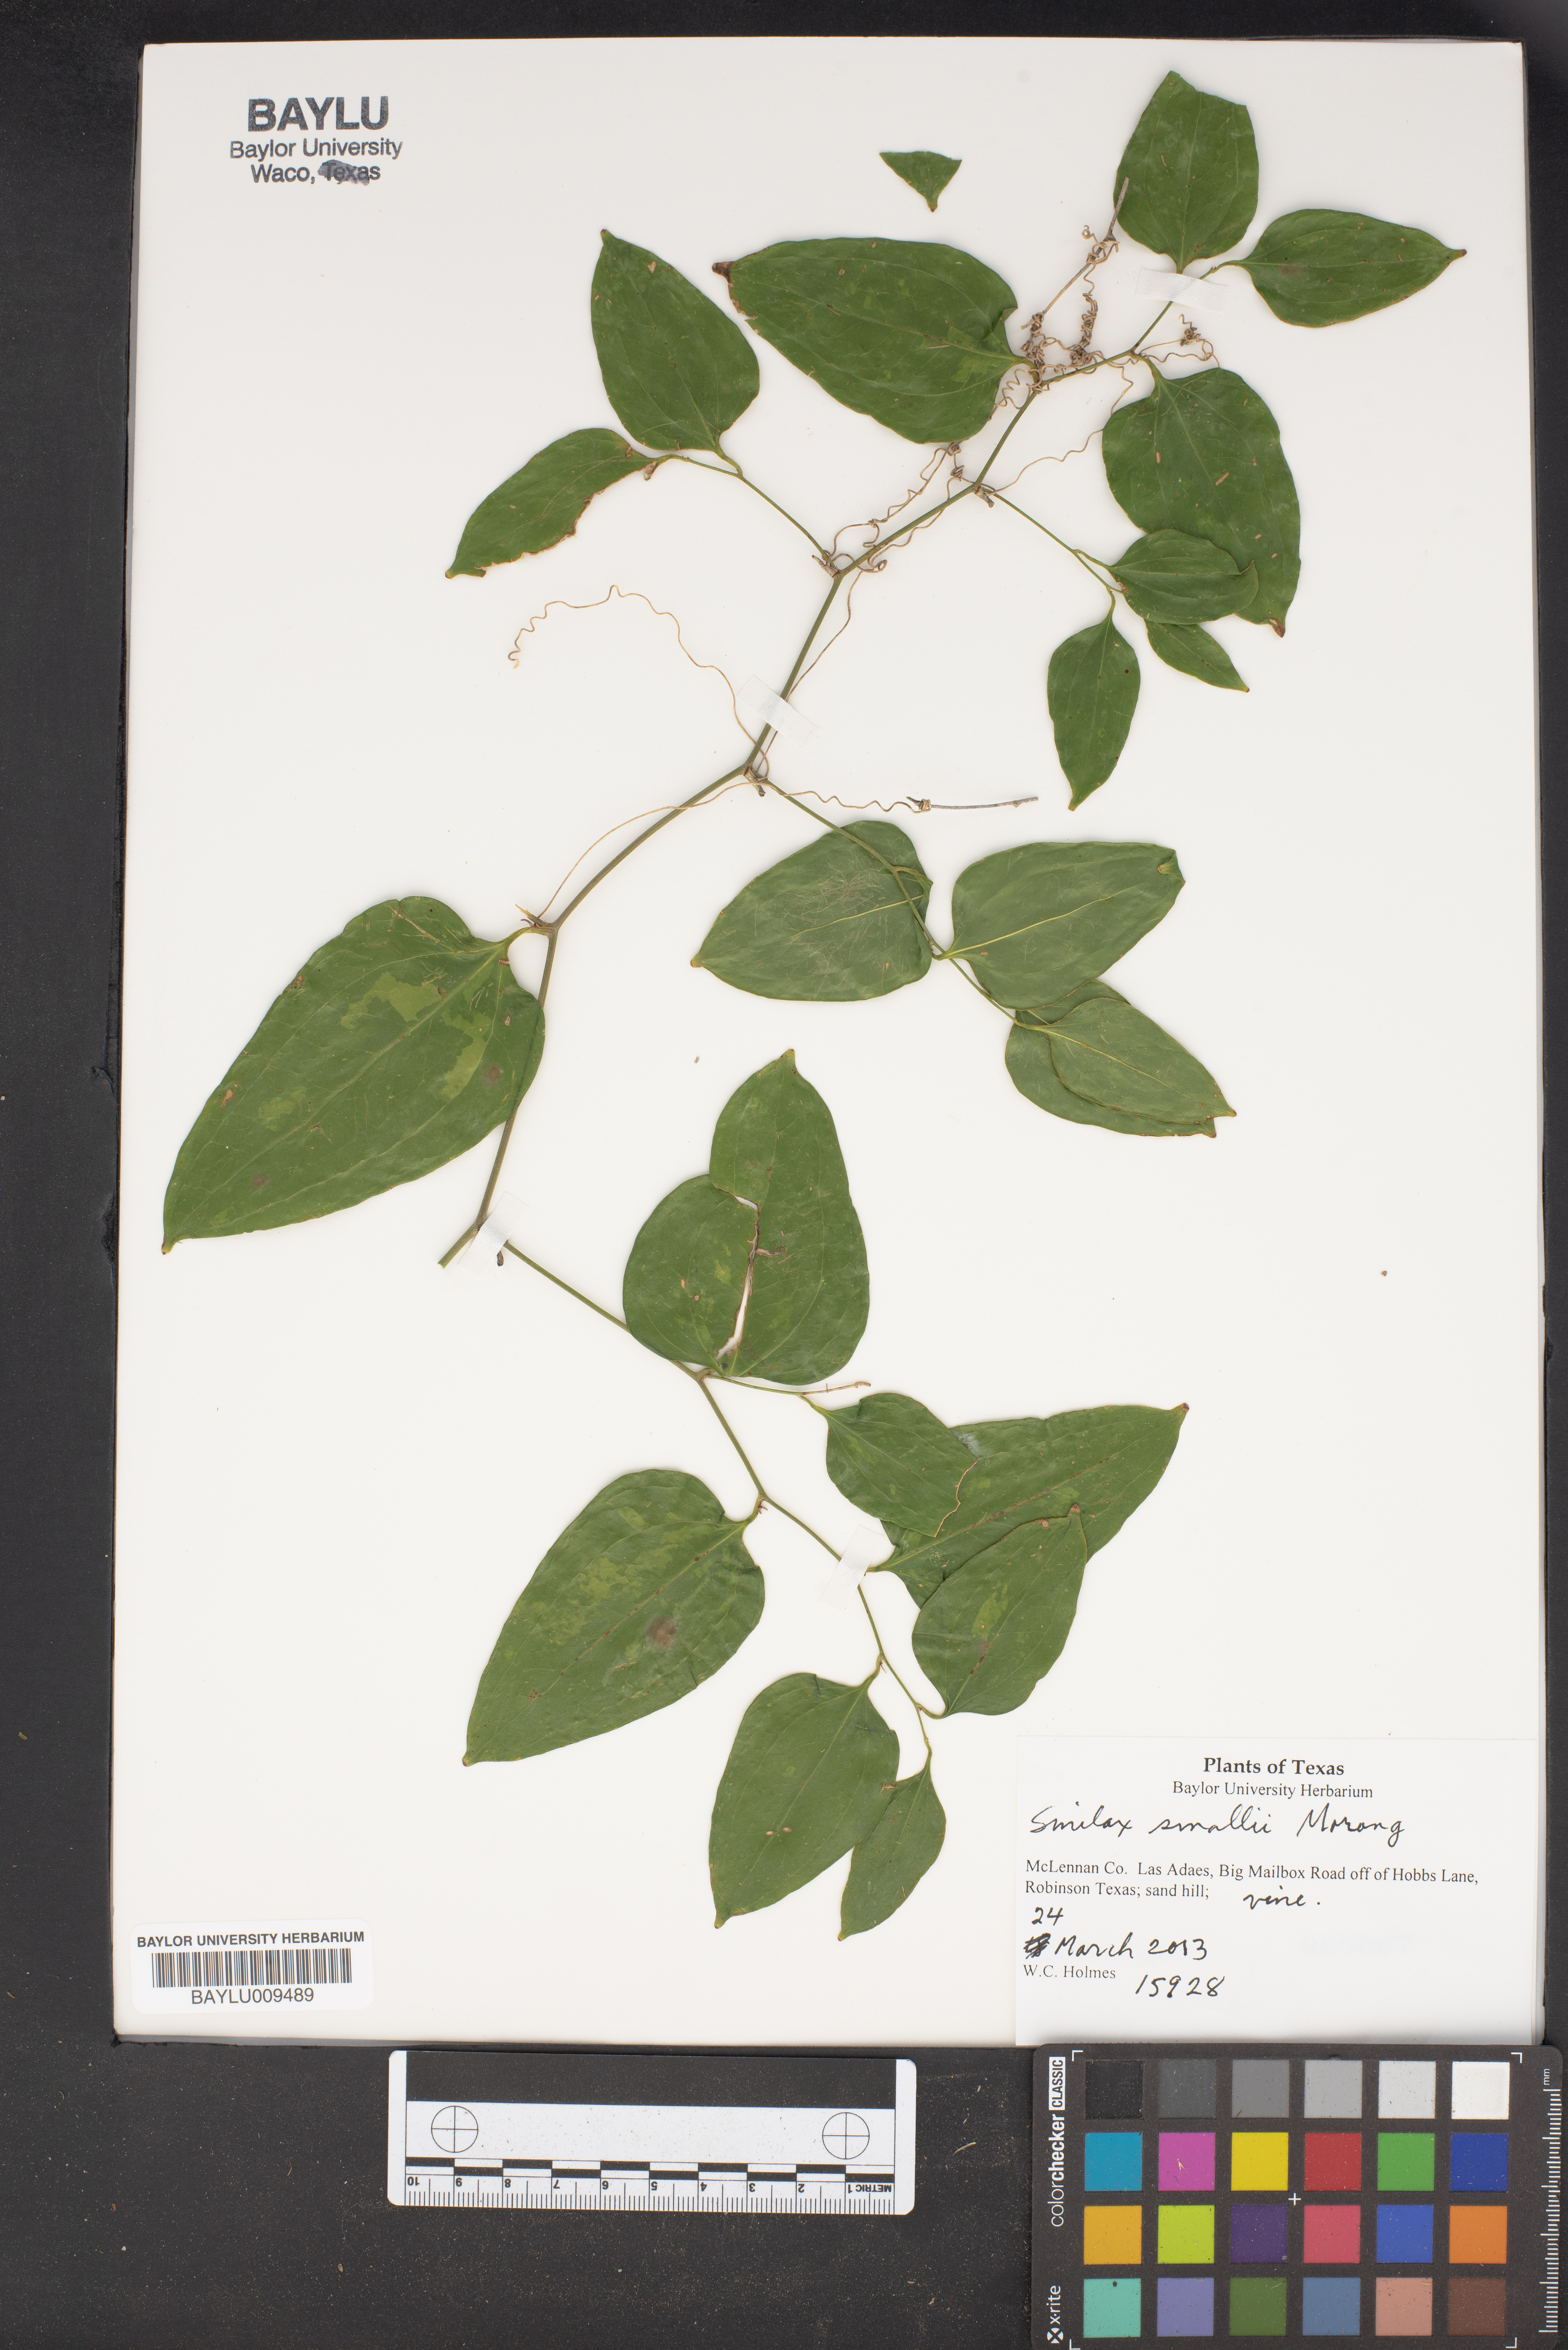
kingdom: Plantae
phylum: Tracheophyta
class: Liliopsida
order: Liliales
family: Smilacaceae
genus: Smilax
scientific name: Smilax maritima
